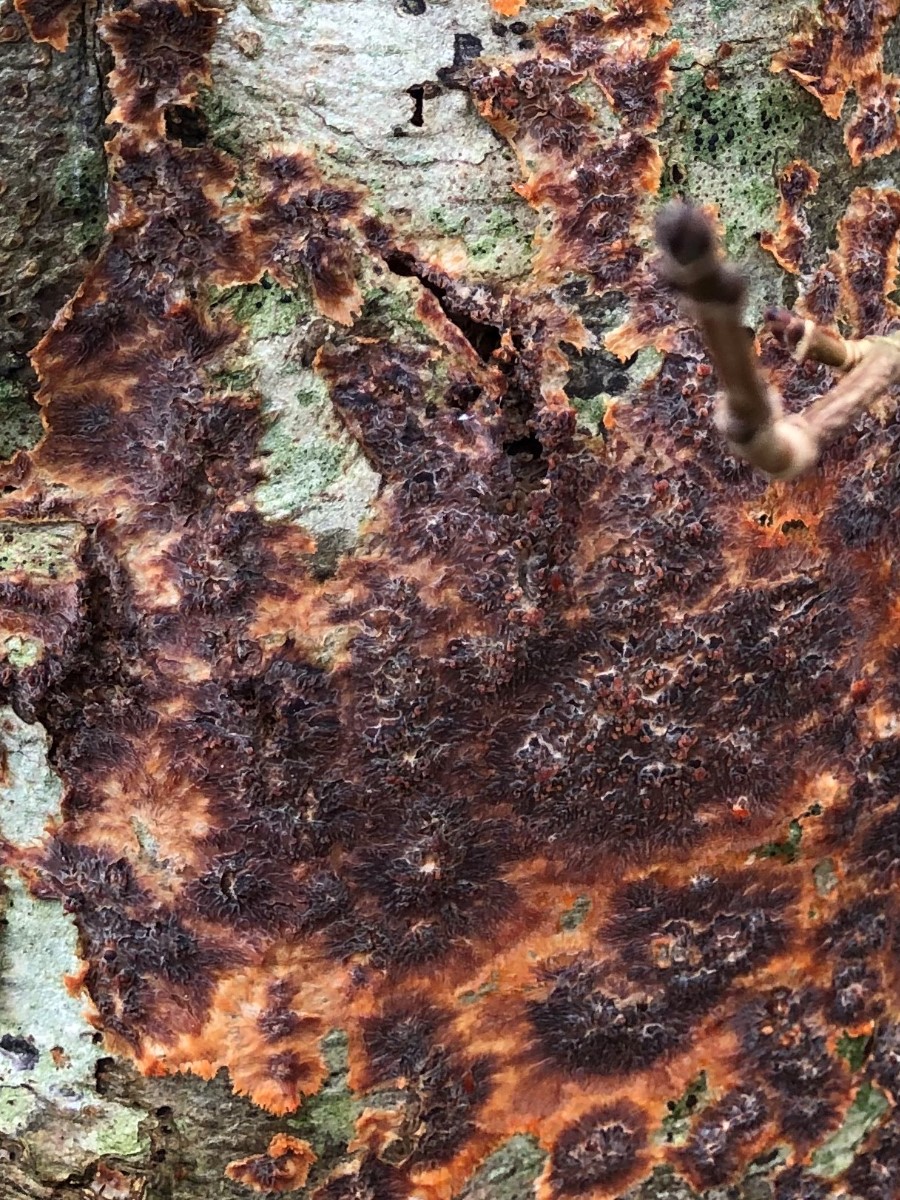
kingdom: Fungi
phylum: Basidiomycota
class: Agaricomycetes
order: Polyporales
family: Meruliaceae
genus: Phlebia
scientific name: Phlebia radiata
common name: stråle-åresvamp
